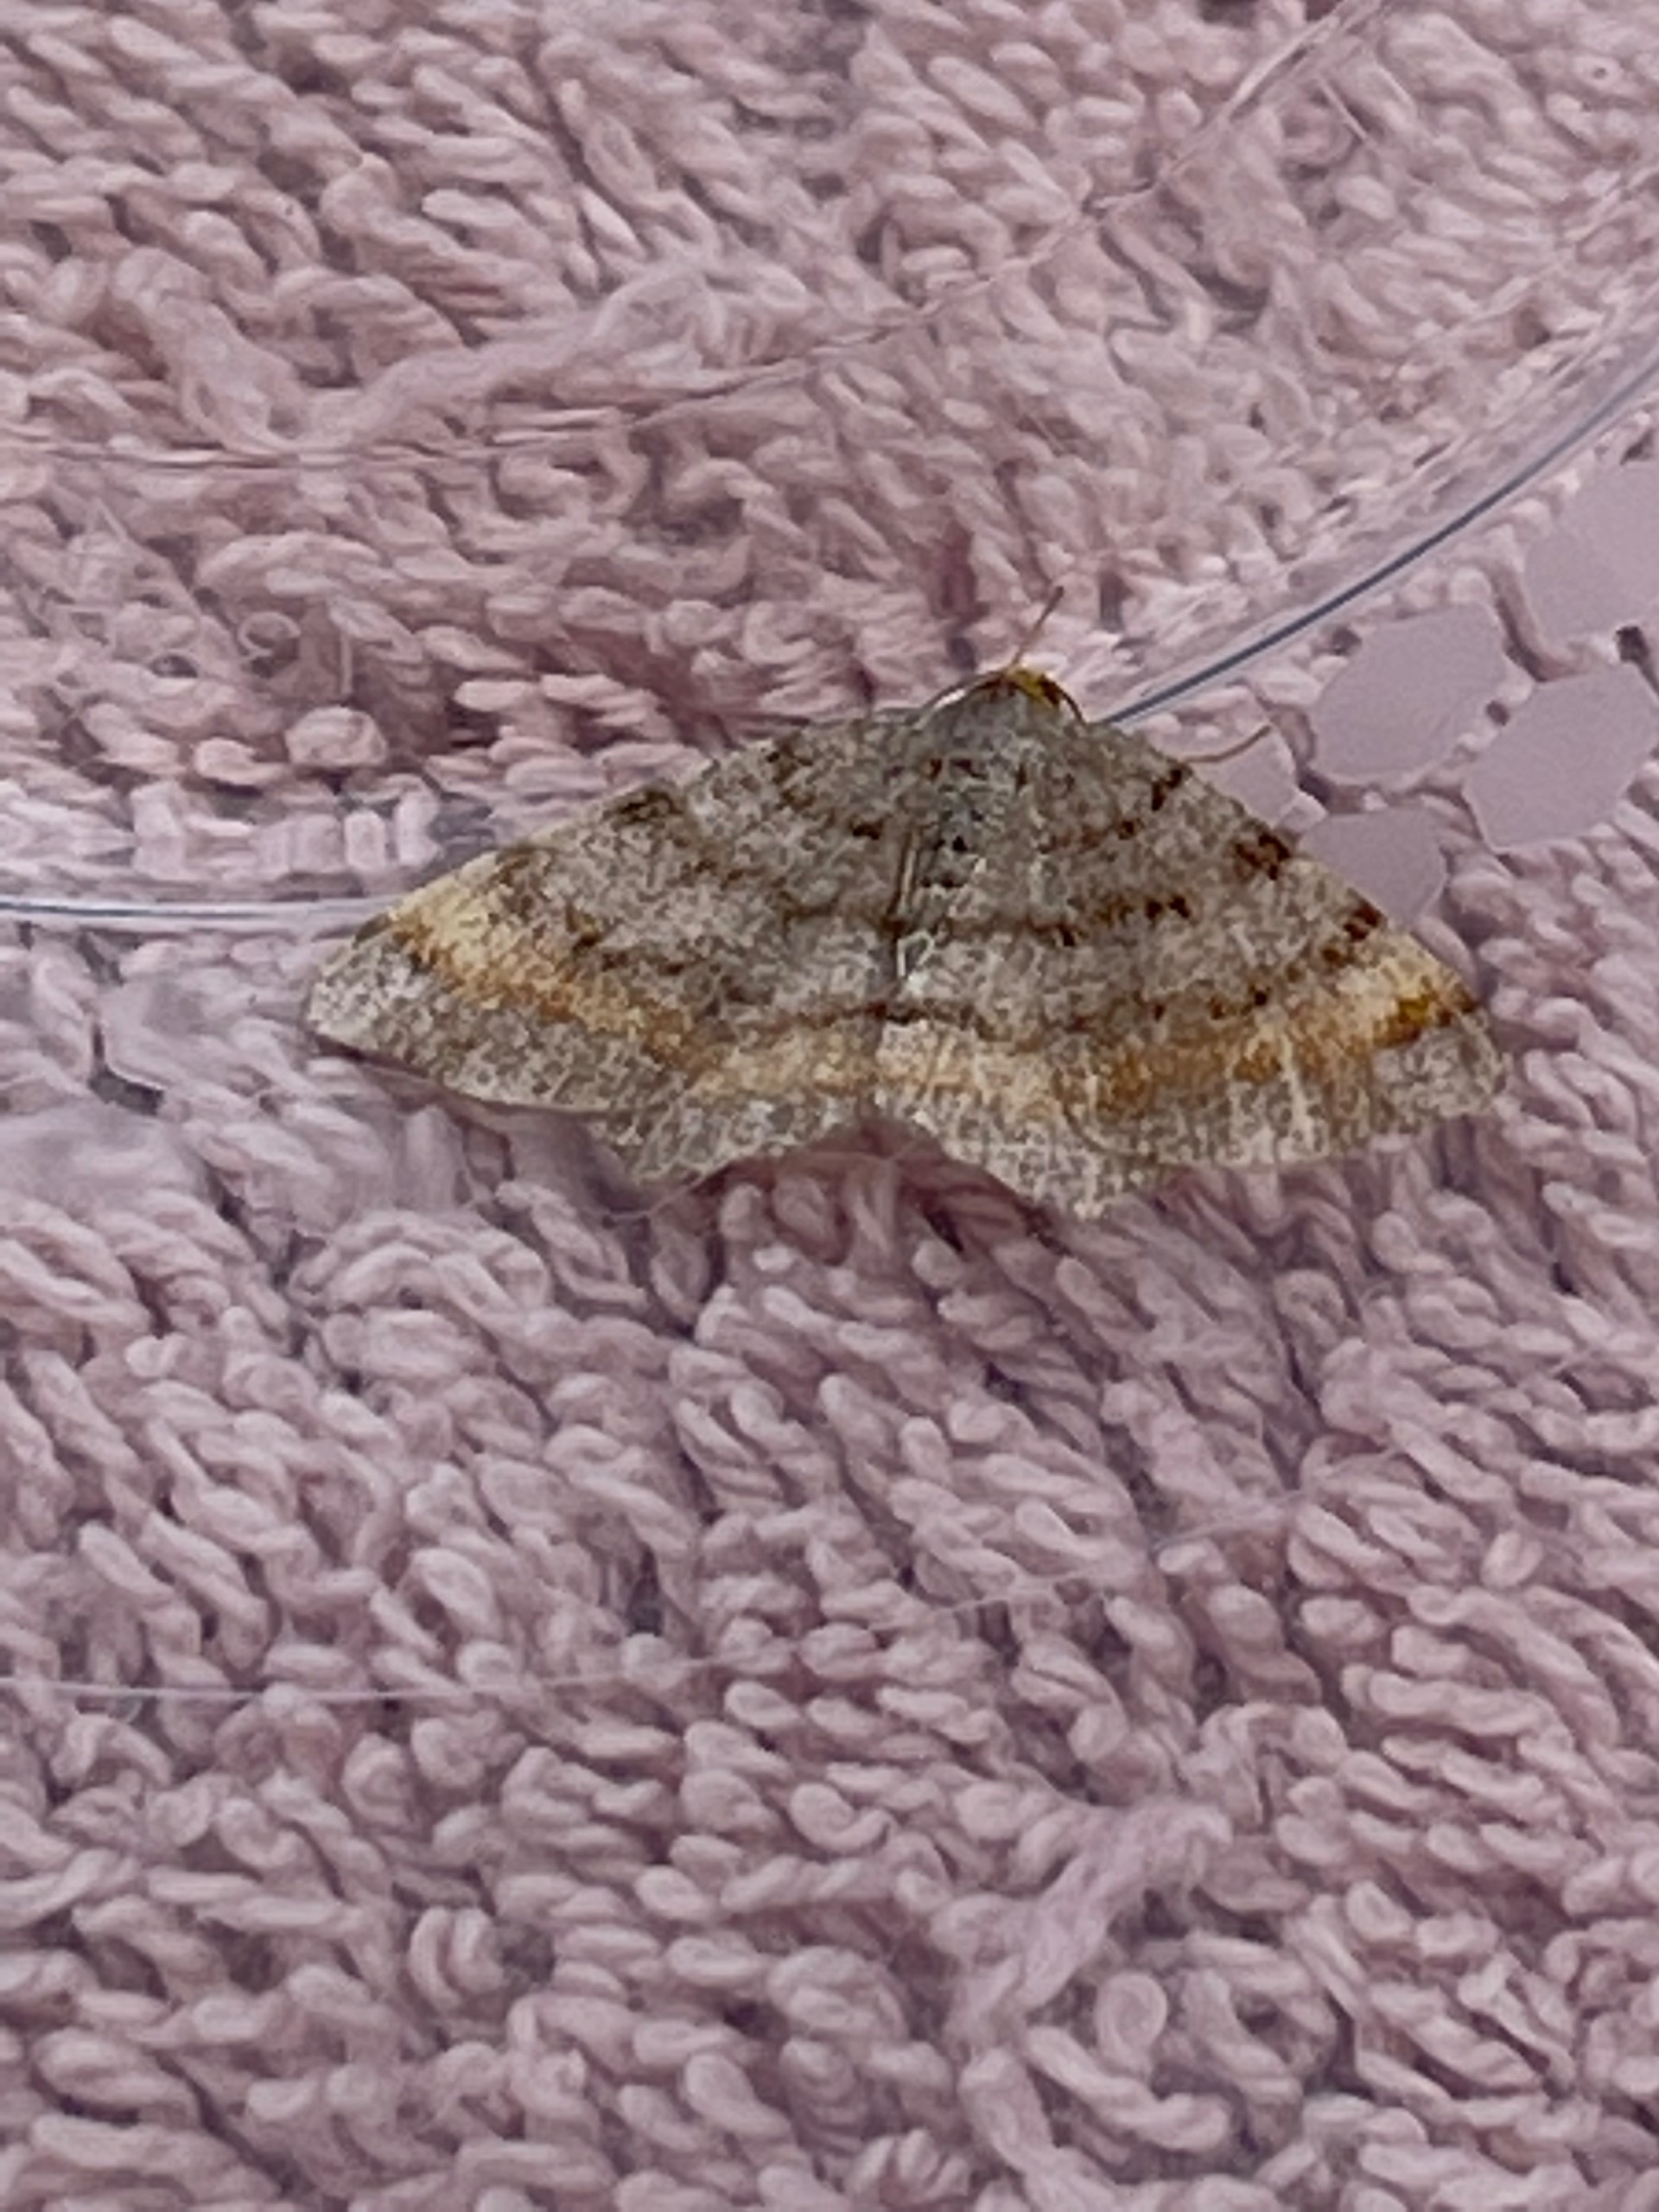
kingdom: Animalia
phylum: Arthropoda
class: Insecta
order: Lepidoptera
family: Geometridae
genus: Macaria
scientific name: Macaria liturata
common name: Fyrre-skovmåler
